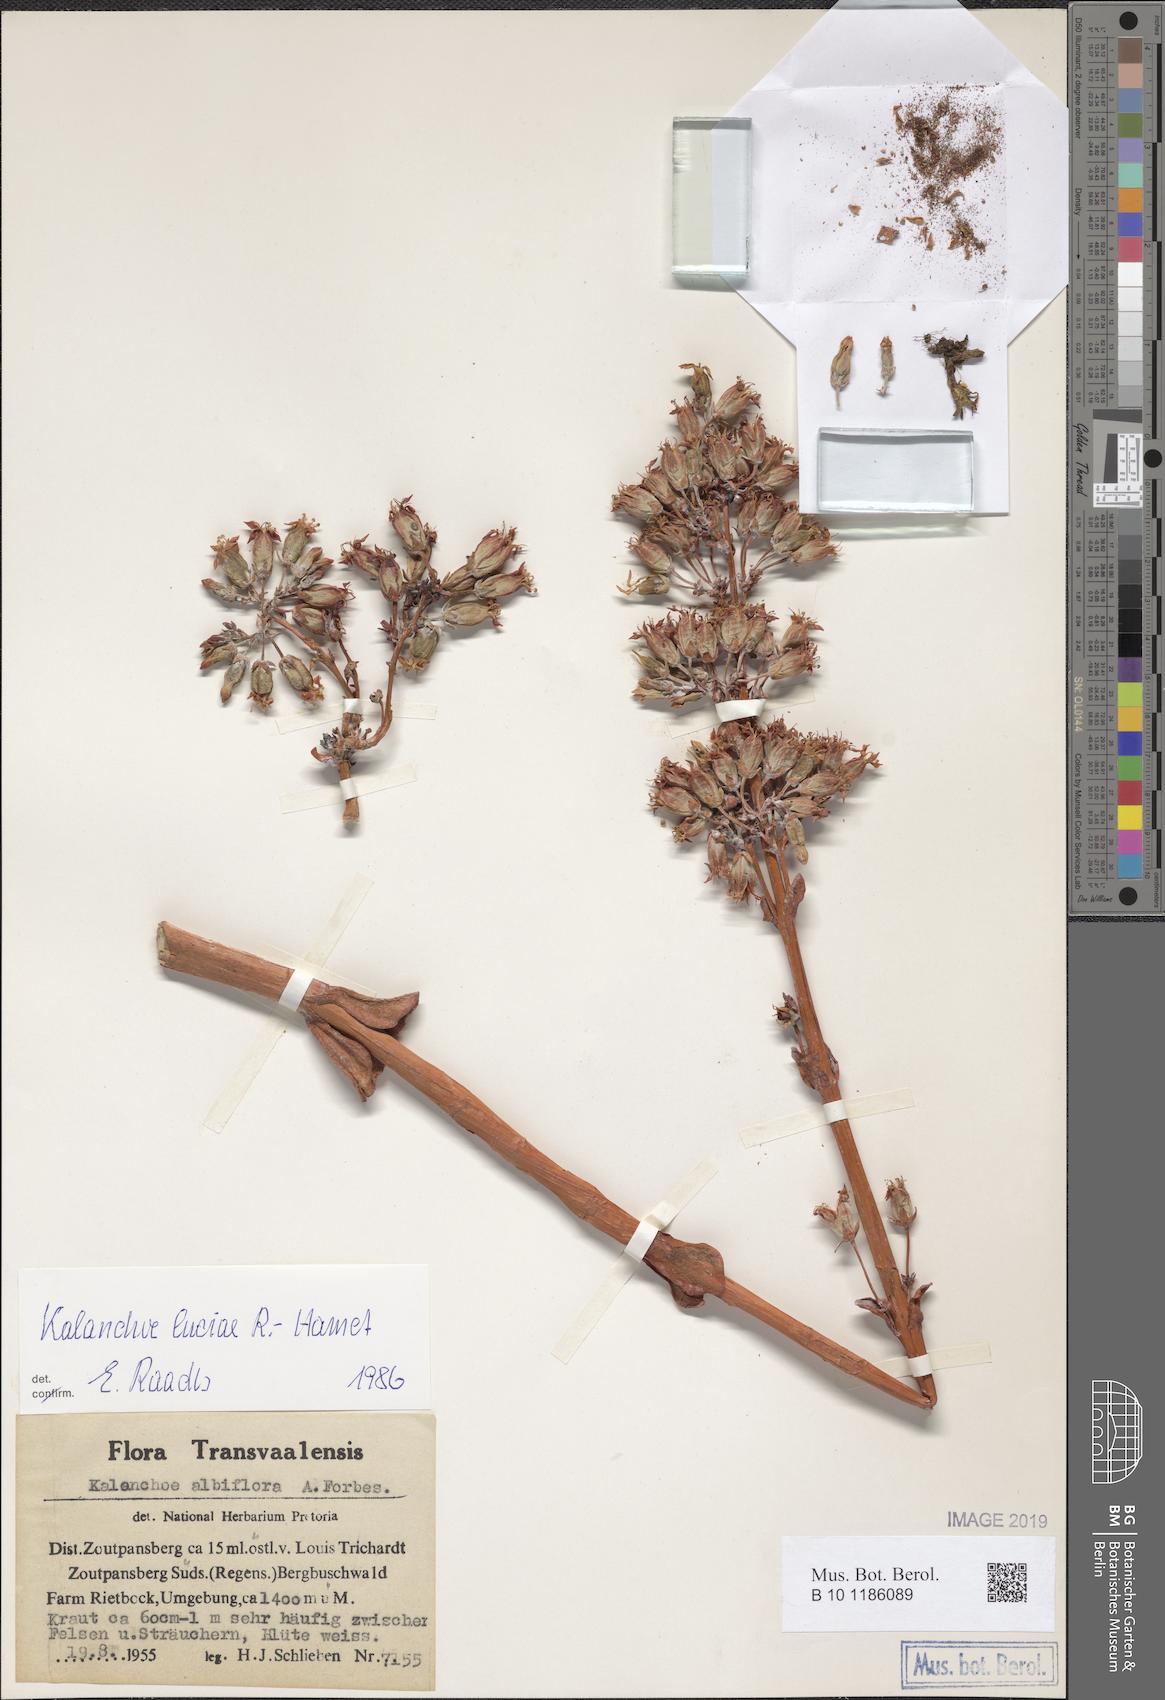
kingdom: Plantae
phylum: Tracheophyta
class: Magnoliopsida
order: Saxifragales
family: Crassulaceae
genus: Kalanchoe
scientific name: Kalanchoe luciae
